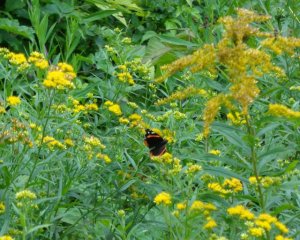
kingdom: Animalia
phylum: Arthropoda
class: Insecta
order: Lepidoptera
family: Nymphalidae
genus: Vanessa
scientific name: Vanessa atalanta
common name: Red Admiral
